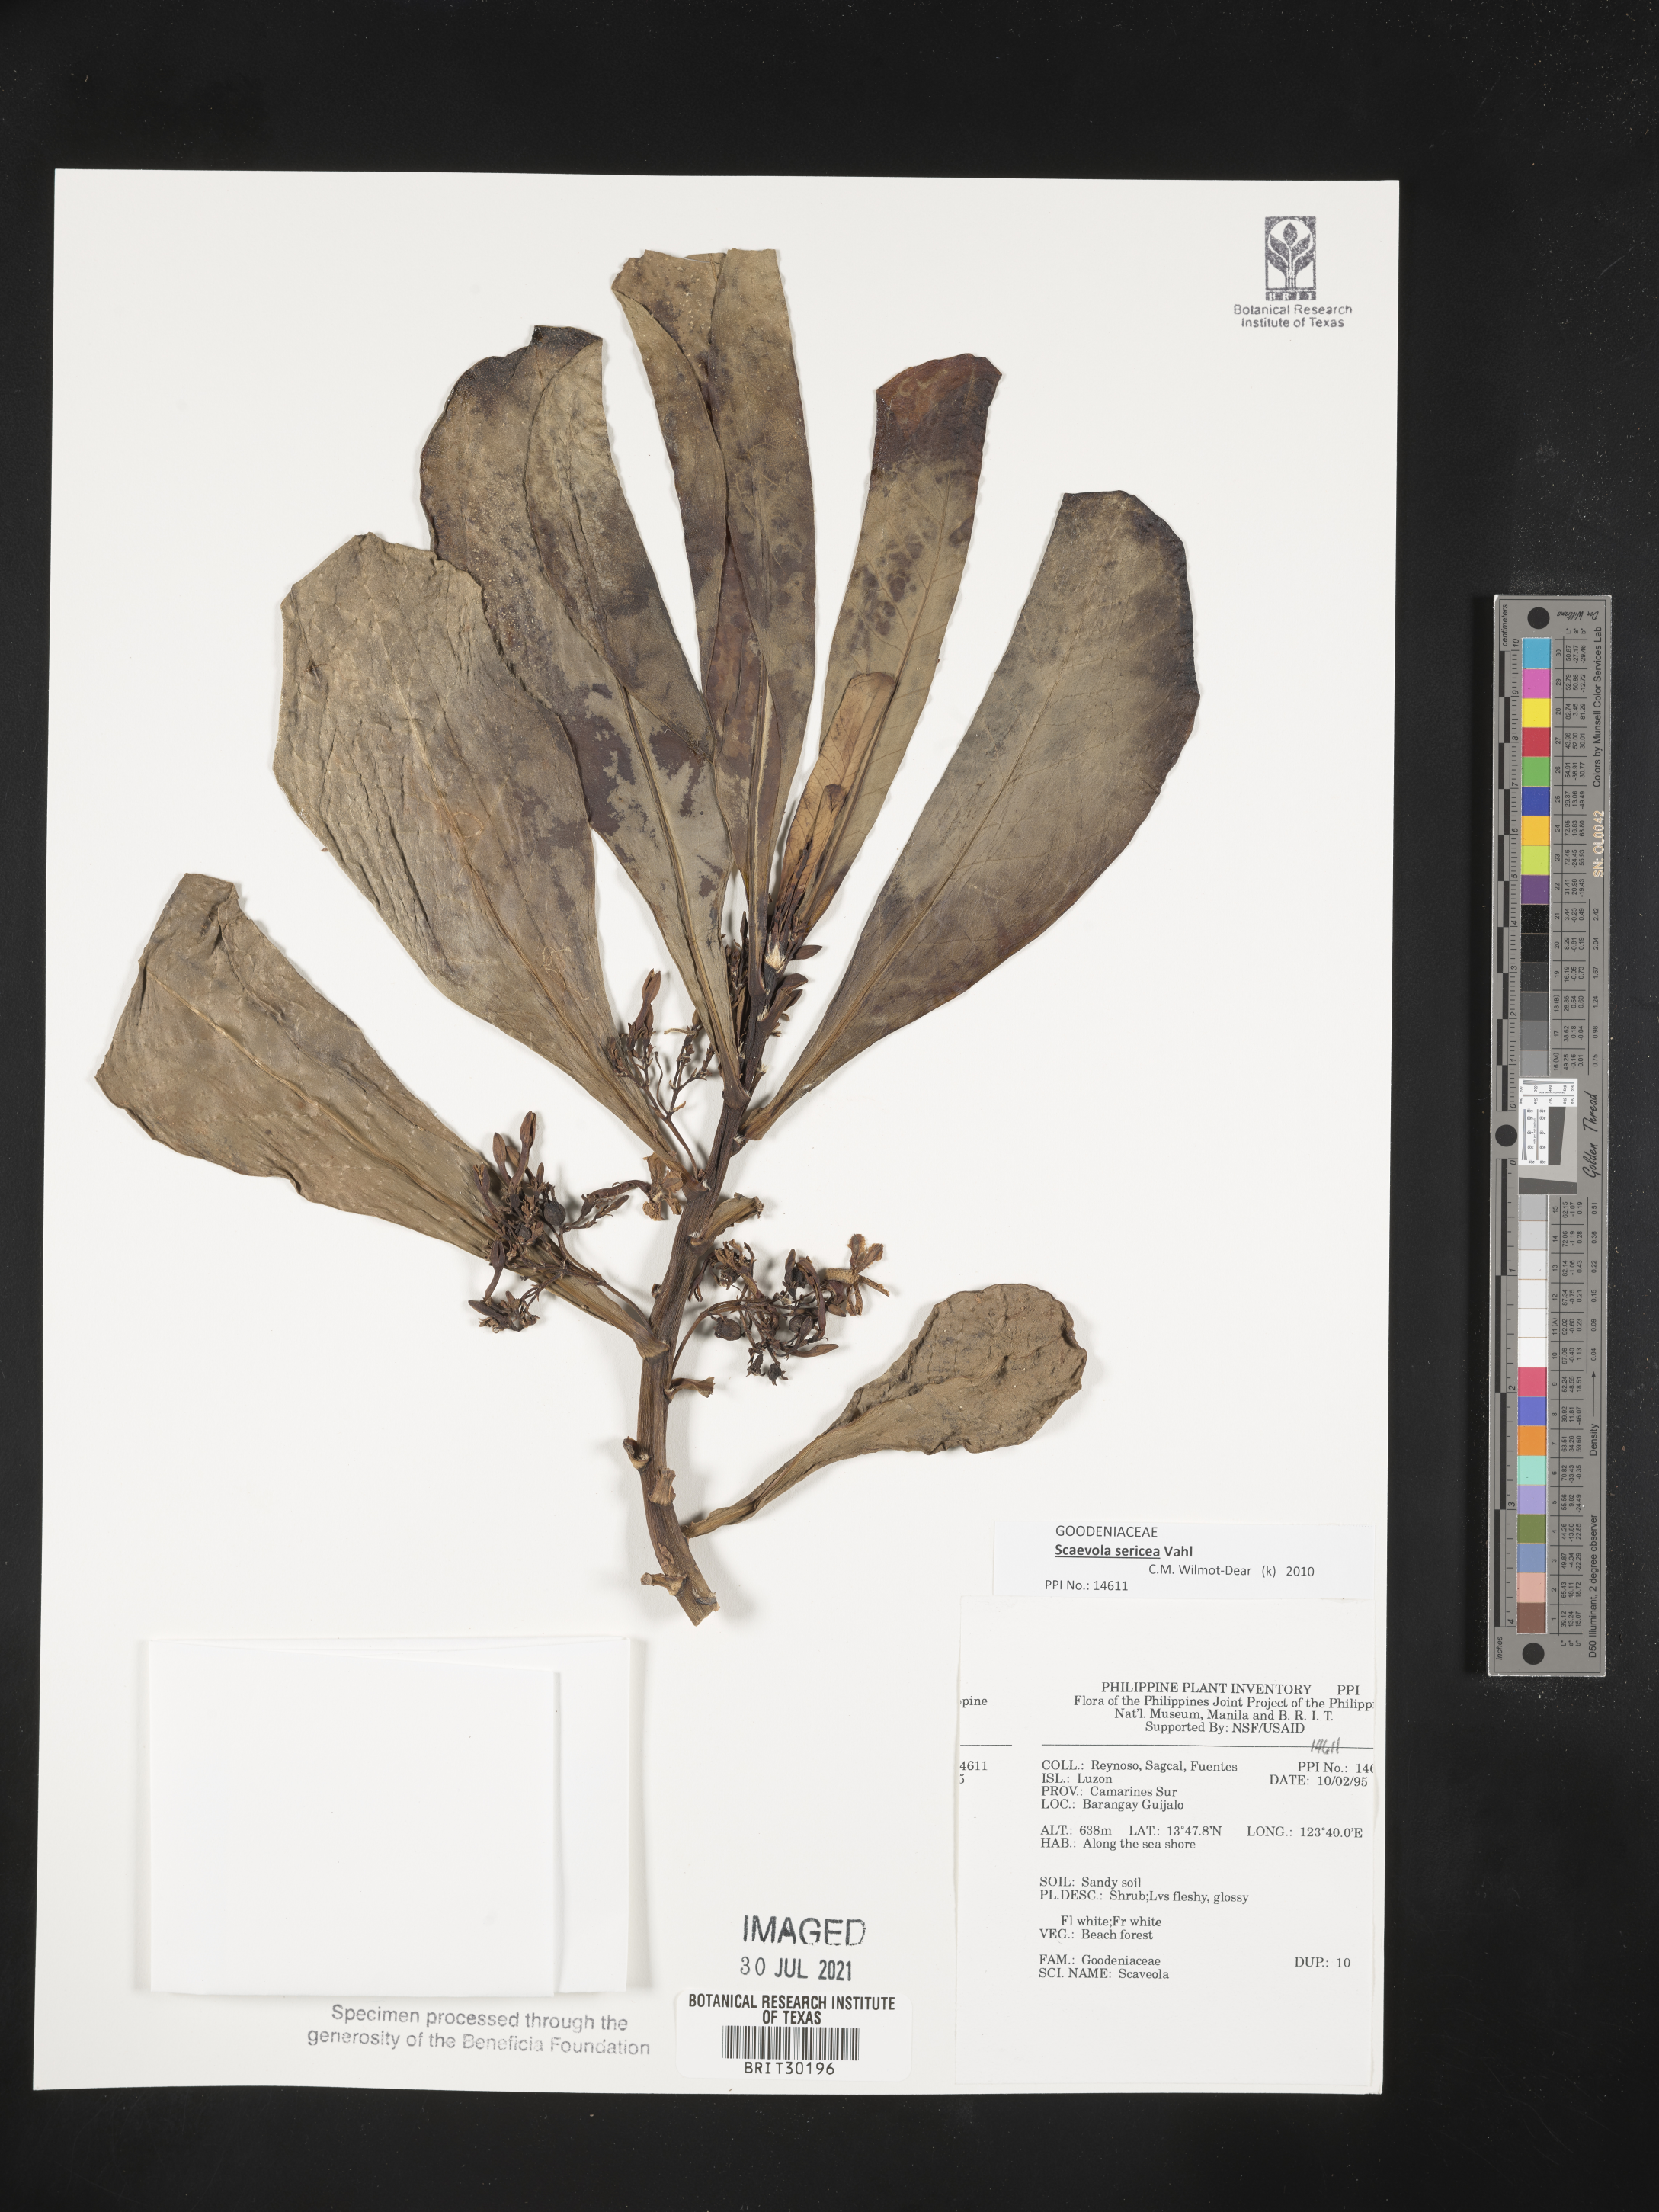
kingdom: Plantae
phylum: Tracheophyta
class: Magnoliopsida
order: Asterales
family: Goodeniaceae
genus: Scaevola
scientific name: Scaevola
